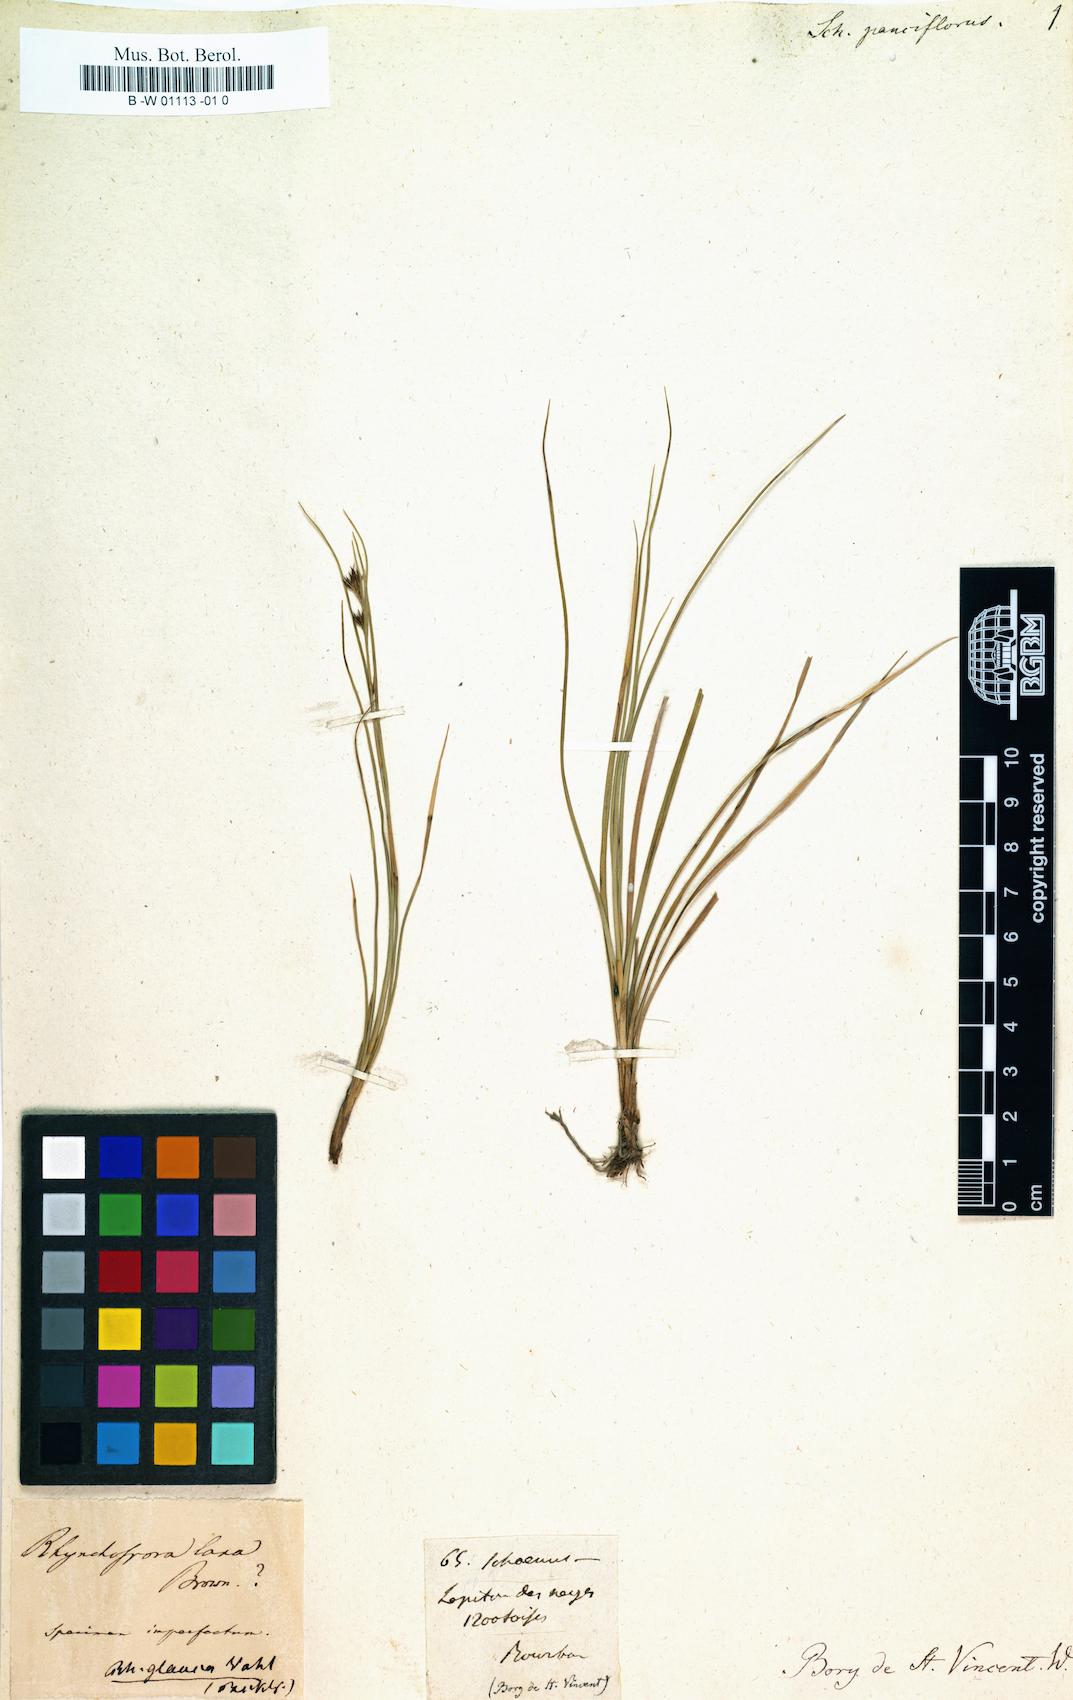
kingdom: Plantae
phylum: Tracheophyta
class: Liliopsida
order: Poales
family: Cyperaceae
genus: Schoenus
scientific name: Schoenus pauciflorus
